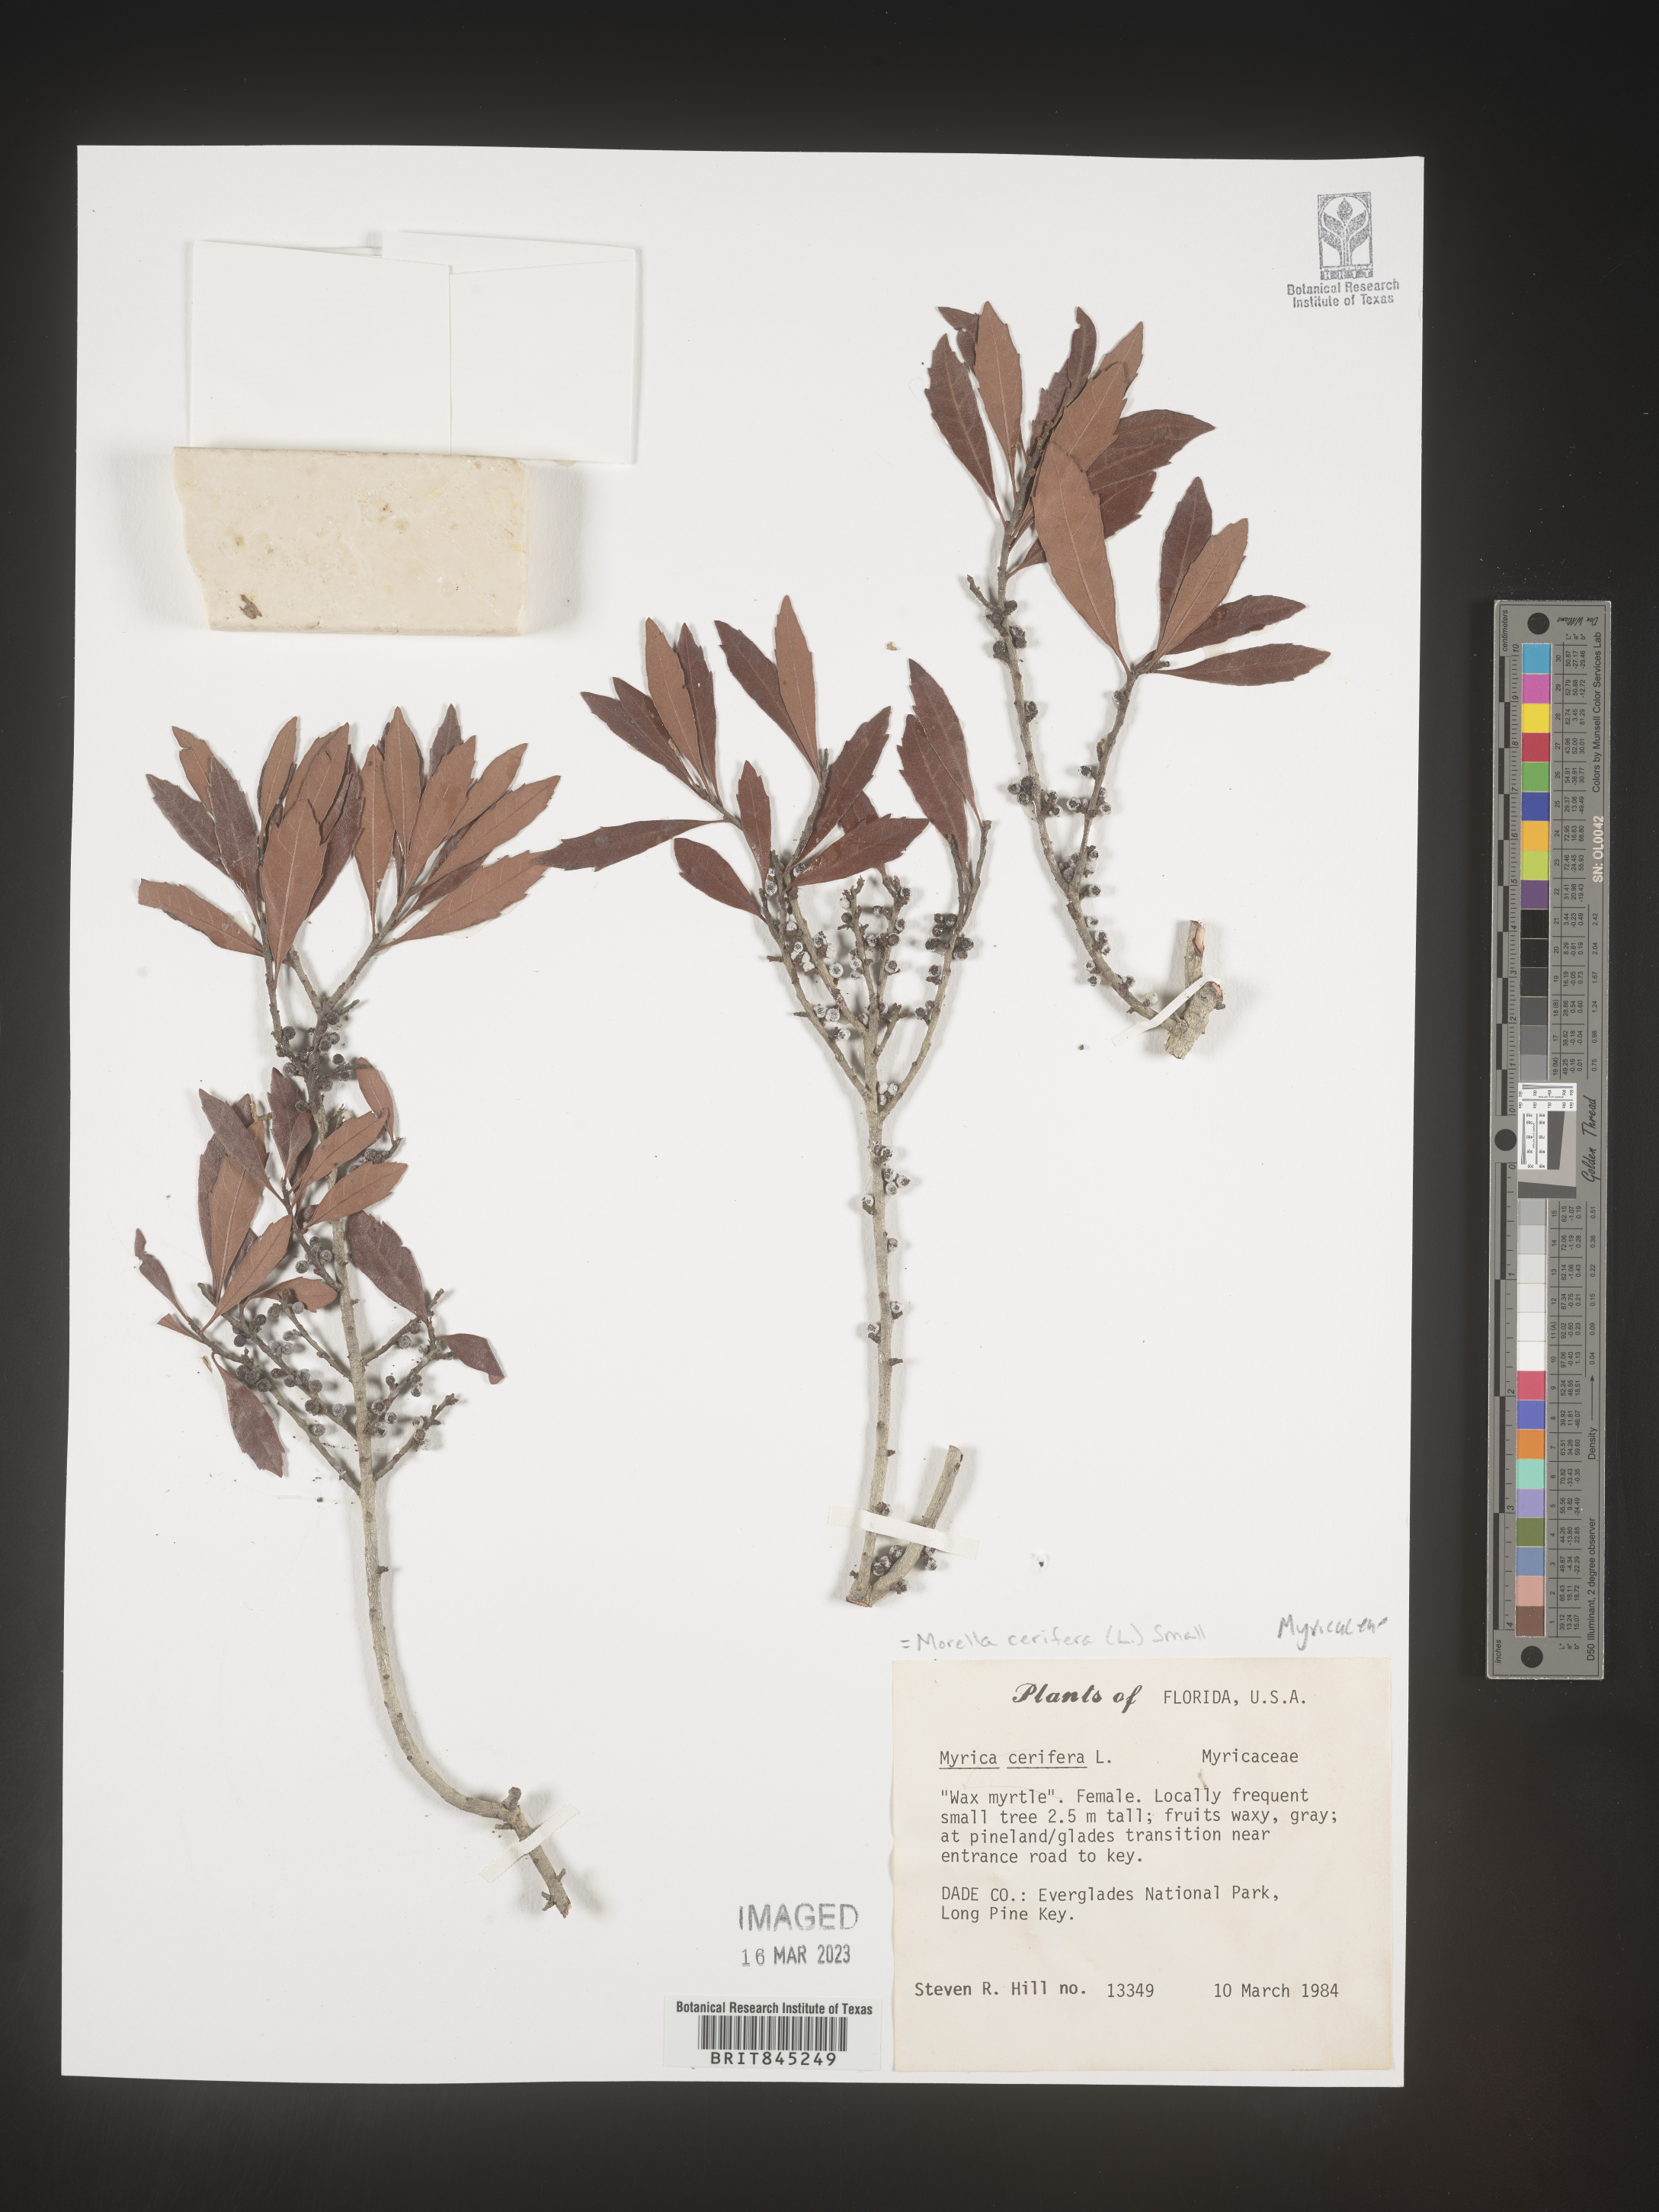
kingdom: Plantae
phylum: Tracheophyta
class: Magnoliopsida
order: Fagales
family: Myricaceae
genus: Morella
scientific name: Morella cerifera
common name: Wax myrtle
